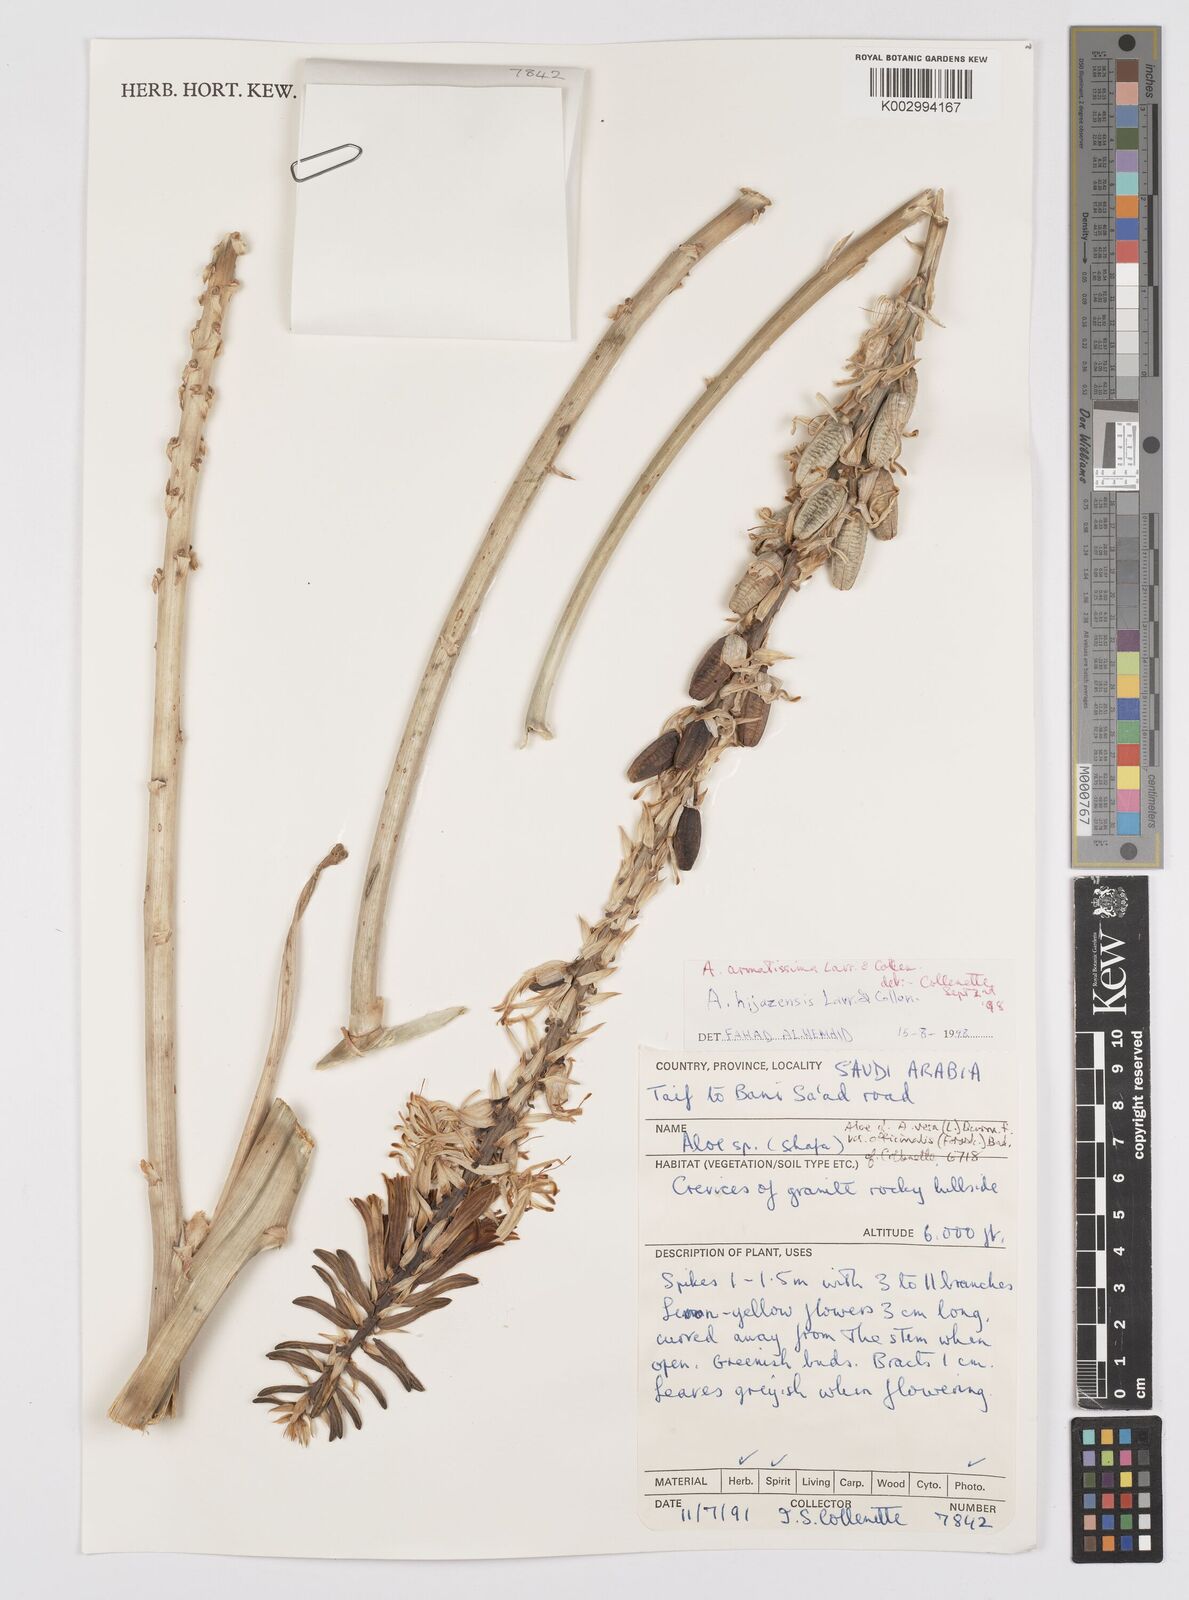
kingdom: Plantae
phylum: Tracheophyta
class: Liliopsida
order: Asparagales
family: Asphodelaceae
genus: Aloe
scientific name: Aloe armatissima
